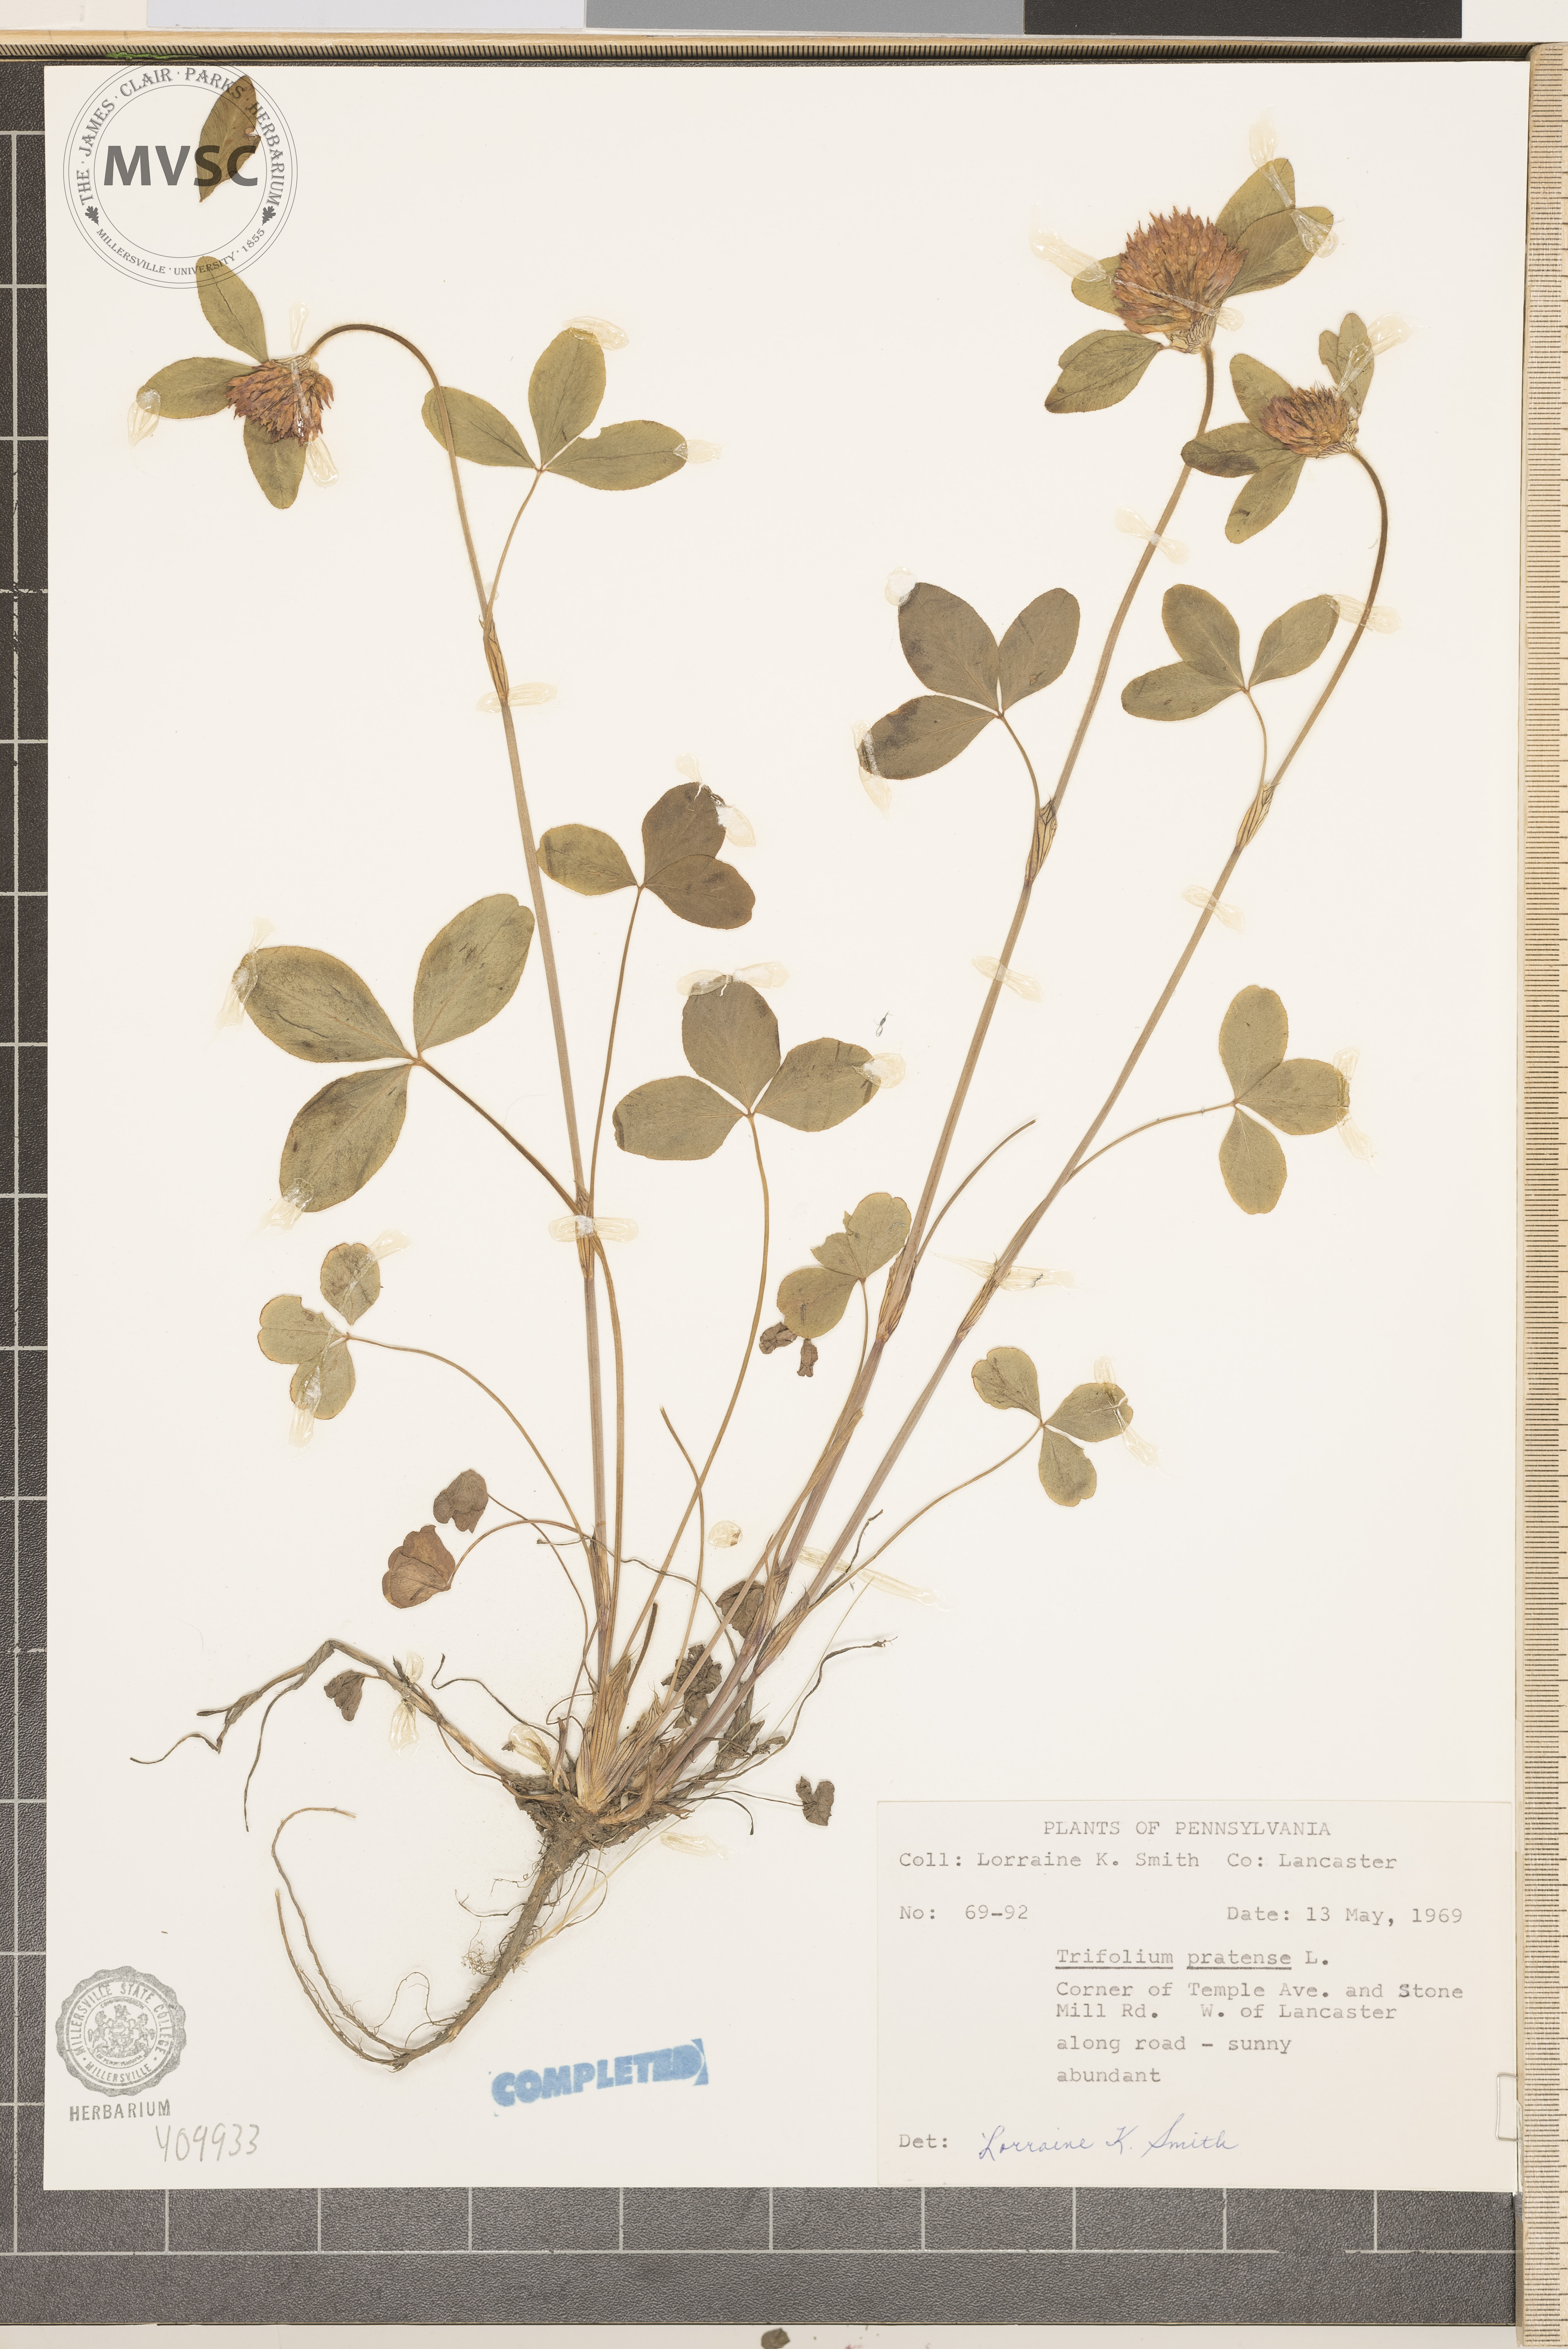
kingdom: Plantae
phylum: Tracheophyta
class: Magnoliopsida
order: Fabales
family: Fabaceae
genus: Trifolium
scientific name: Trifolium pratense
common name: Red clover
